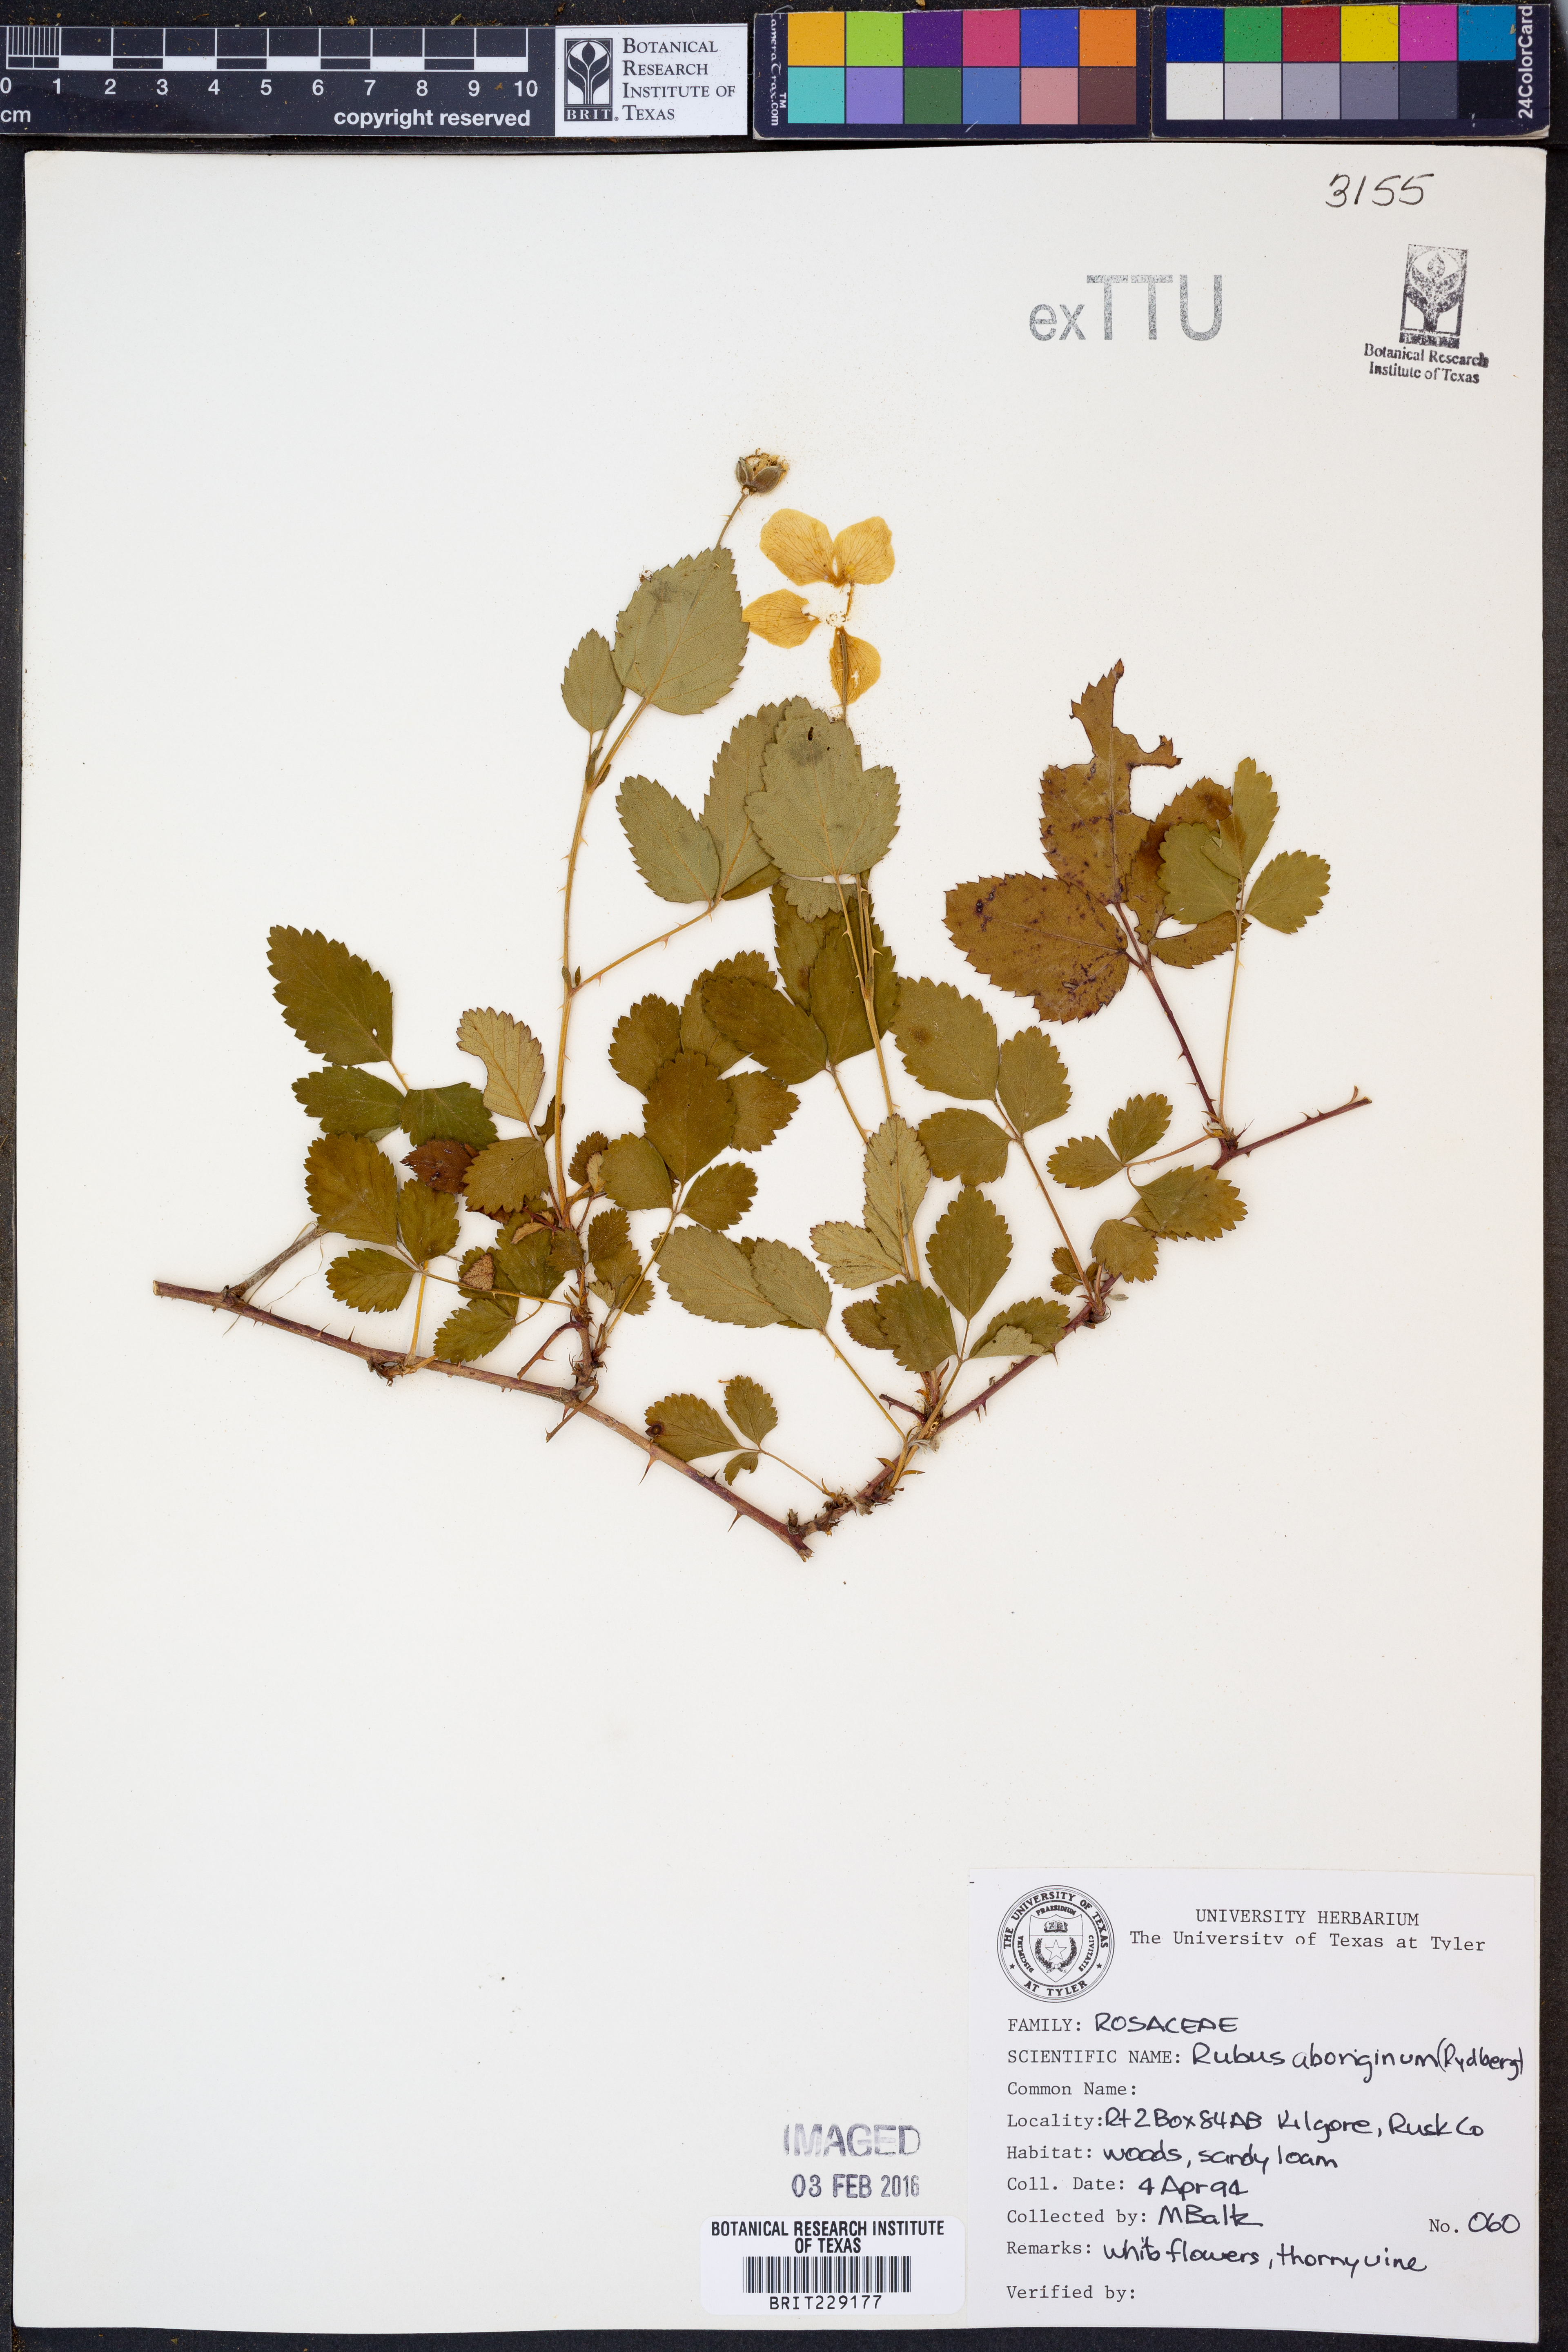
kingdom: Plantae
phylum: Tracheophyta
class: Magnoliopsida
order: Rosales
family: Rosaceae
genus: Rubus
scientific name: Rubus aboriginum
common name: Mayes dewberry
